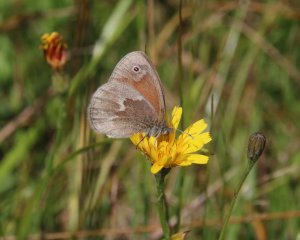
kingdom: Animalia
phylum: Arthropoda
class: Insecta
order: Lepidoptera
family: Nymphalidae
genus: Coenonympha
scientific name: Coenonympha tullia
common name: Large Heath
